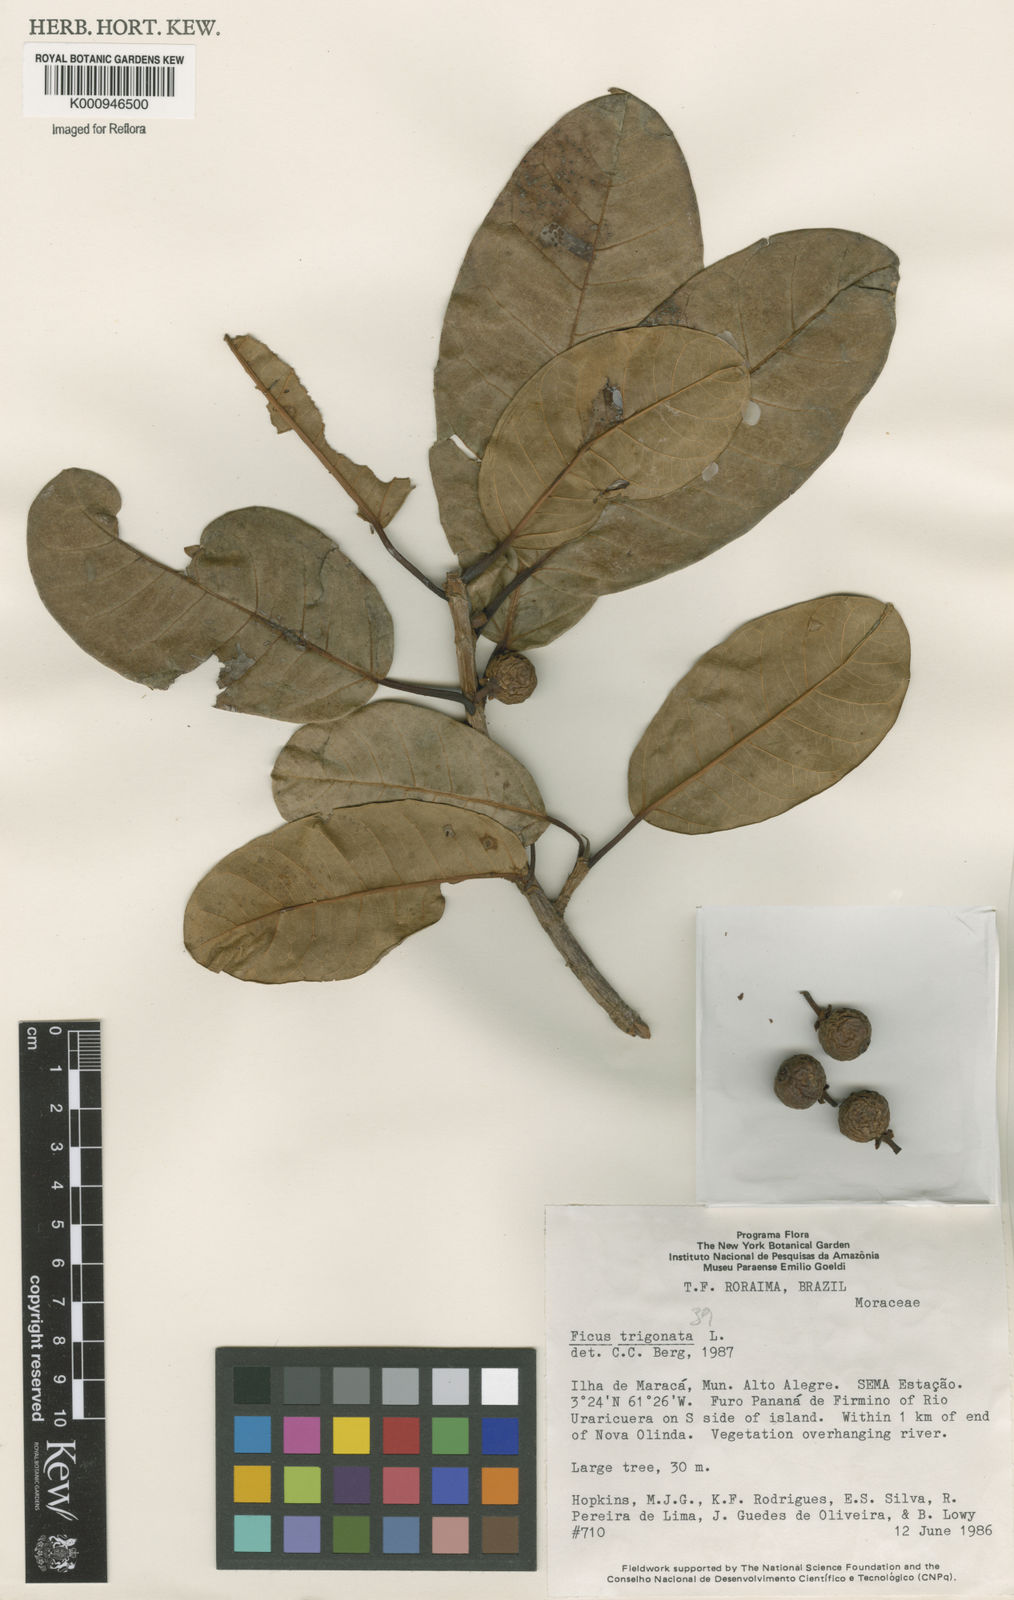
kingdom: Plantae
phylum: Tracheophyta
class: Magnoliopsida
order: Rosales
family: Moraceae
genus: Ficus
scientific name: Ficus trigonata
